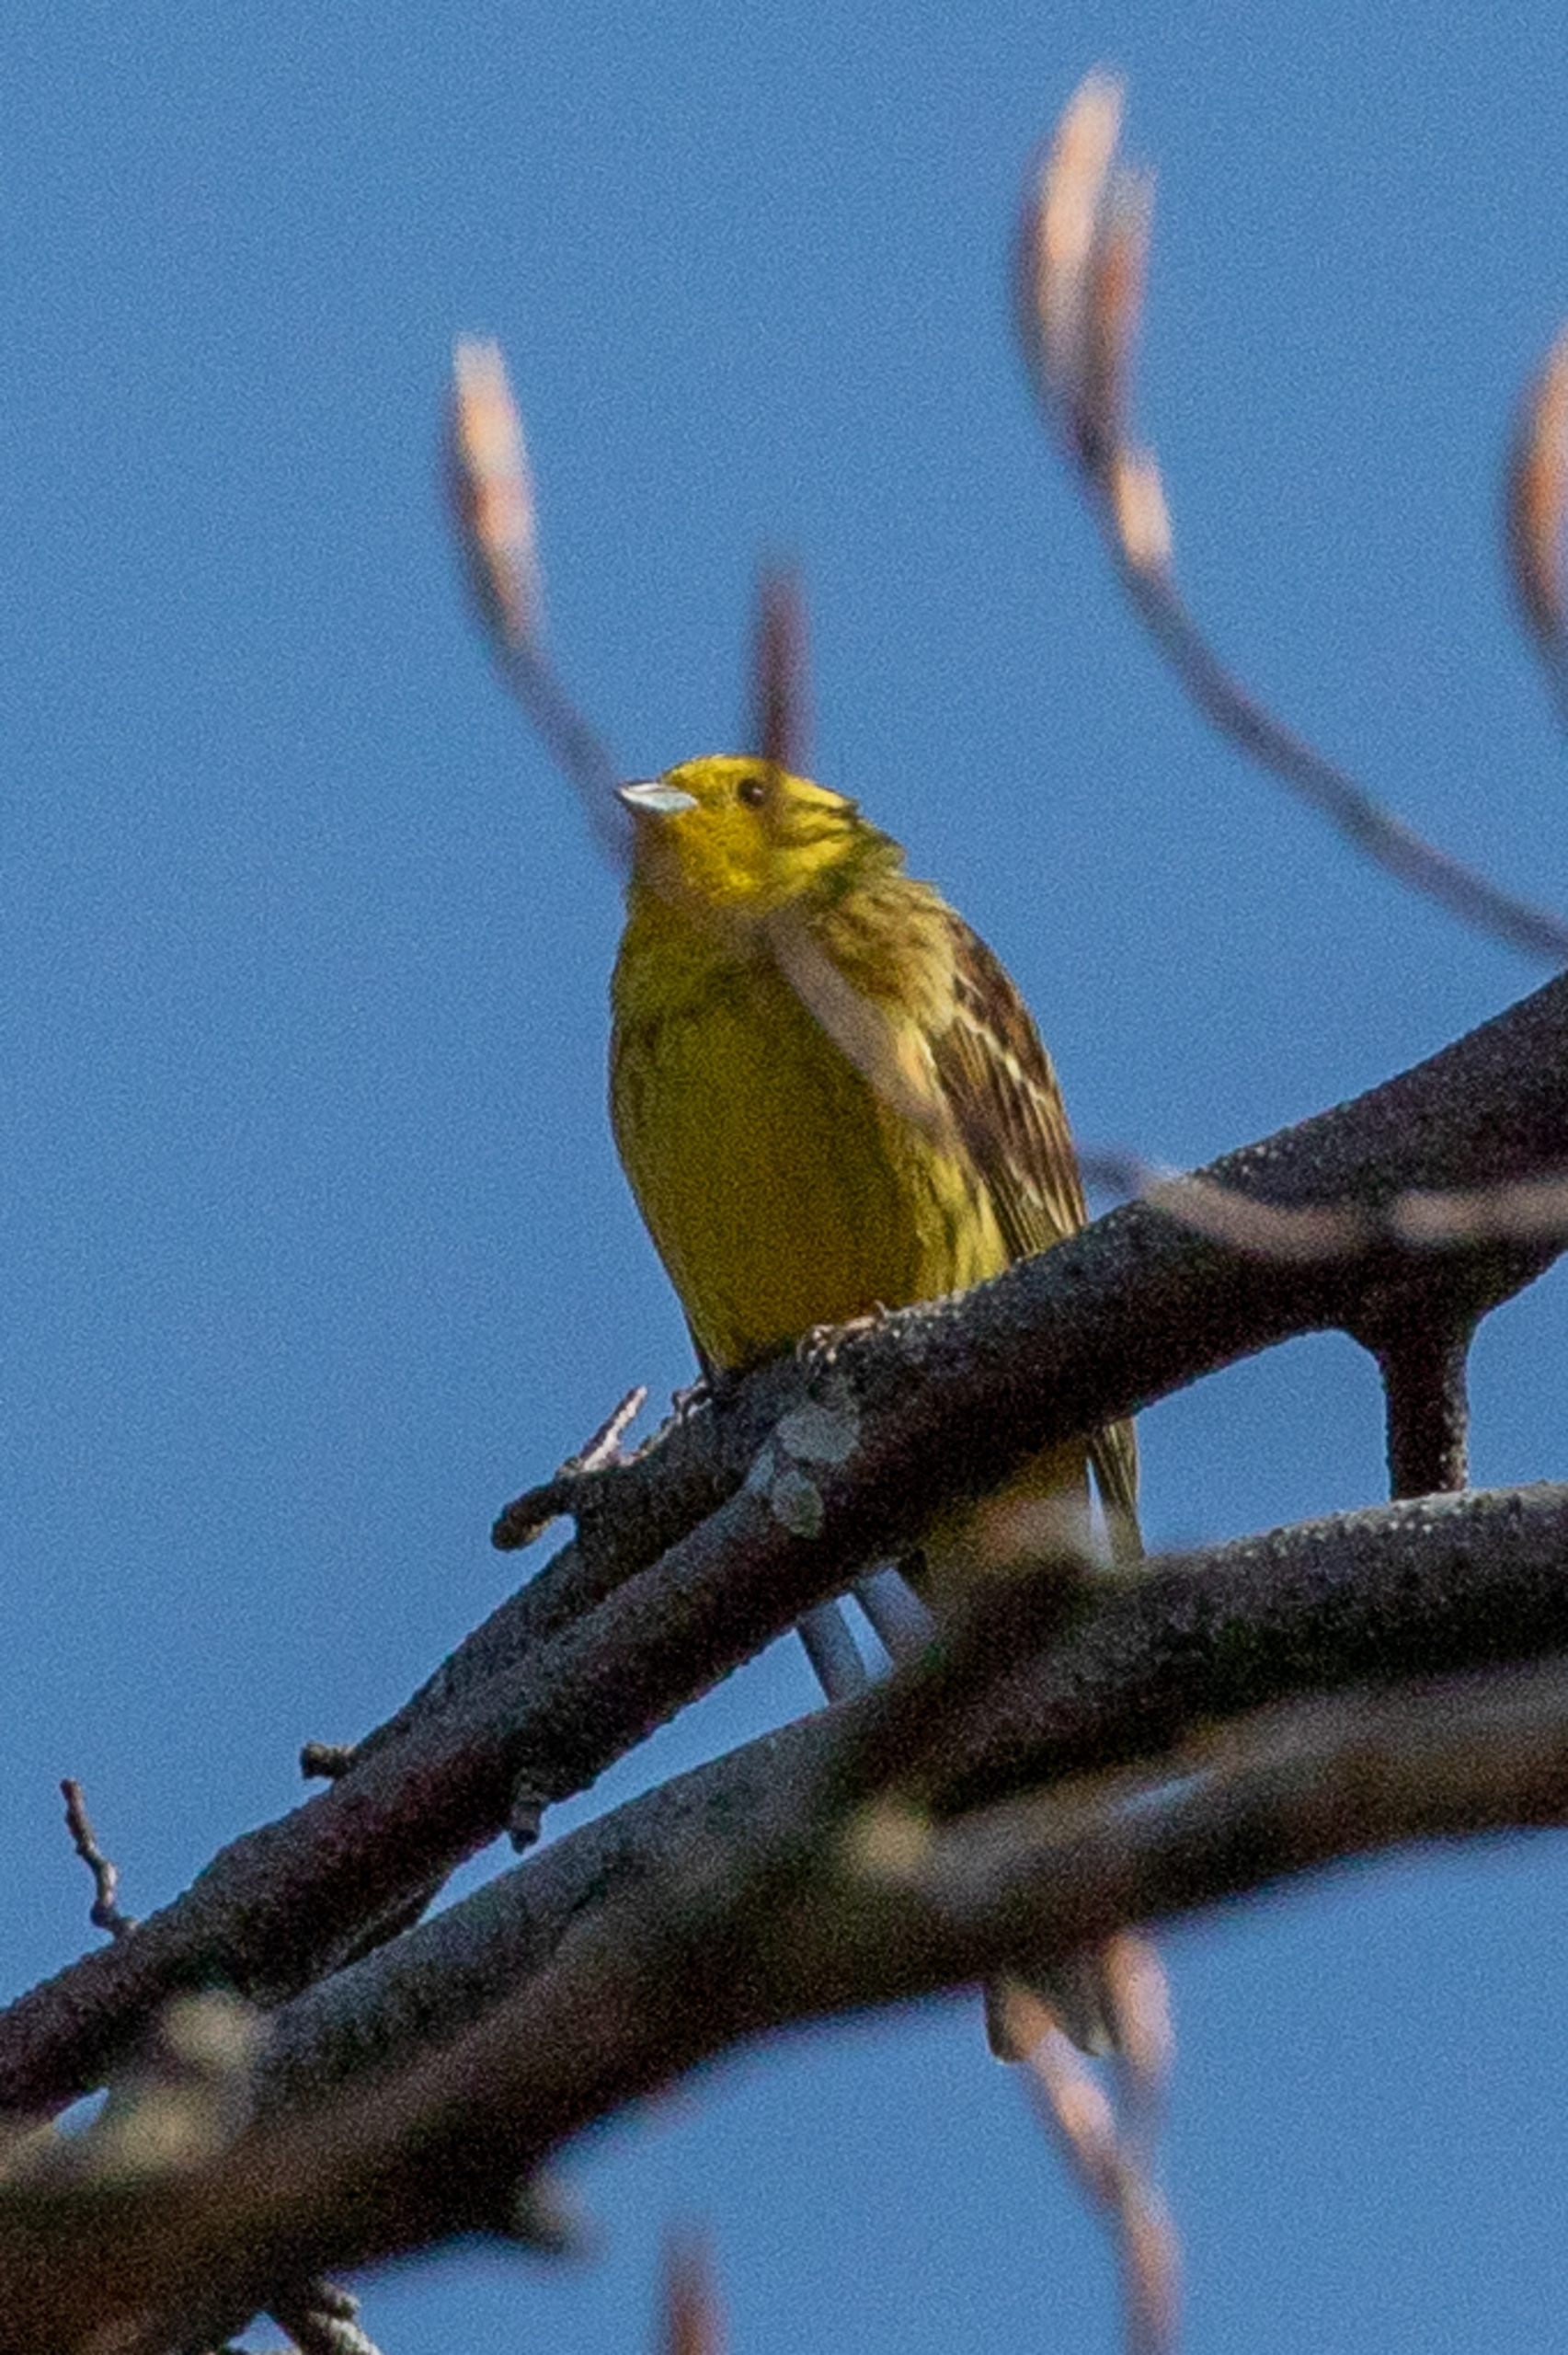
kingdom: Animalia
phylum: Chordata
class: Aves
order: Passeriformes
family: Emberizidae
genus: Emberiza
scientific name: Emberiza citrinella
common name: Gulspurv
